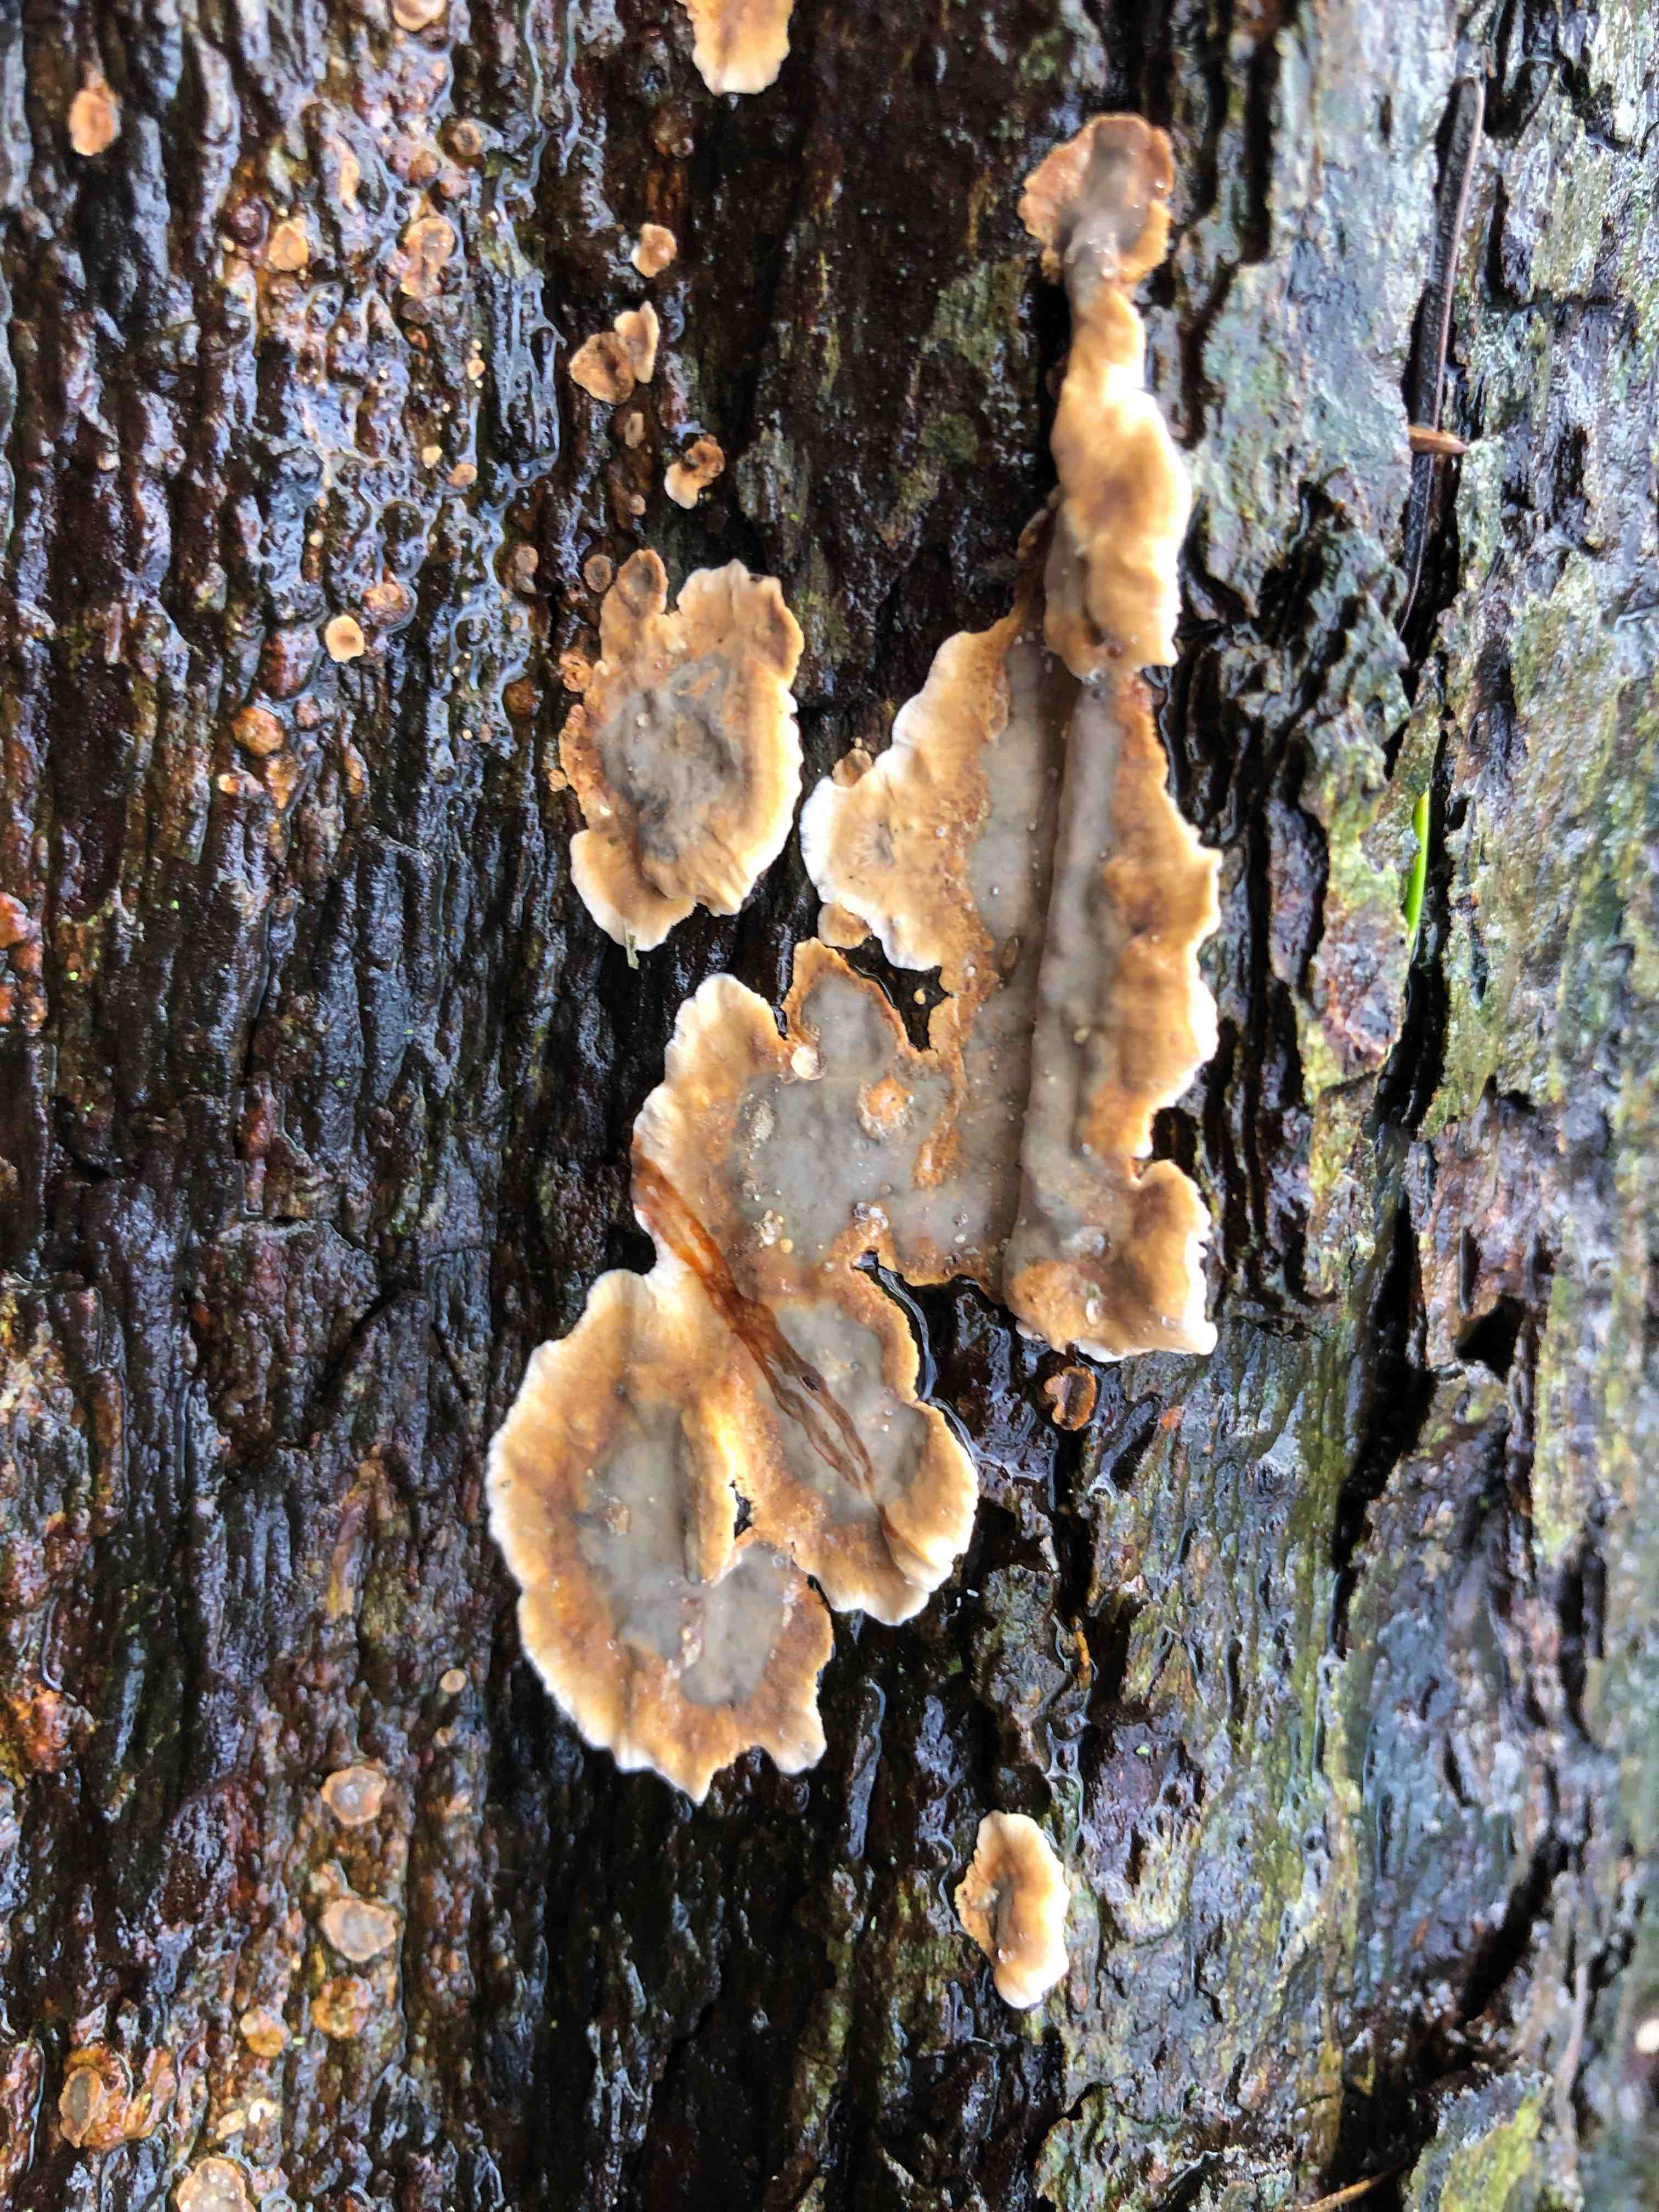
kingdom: Fungi
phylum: Basidiomycota
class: Agaricomycetes
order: Russulales
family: Stereaceae
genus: Stereum
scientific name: Stereum gausapatum
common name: tynd lædersvamp
